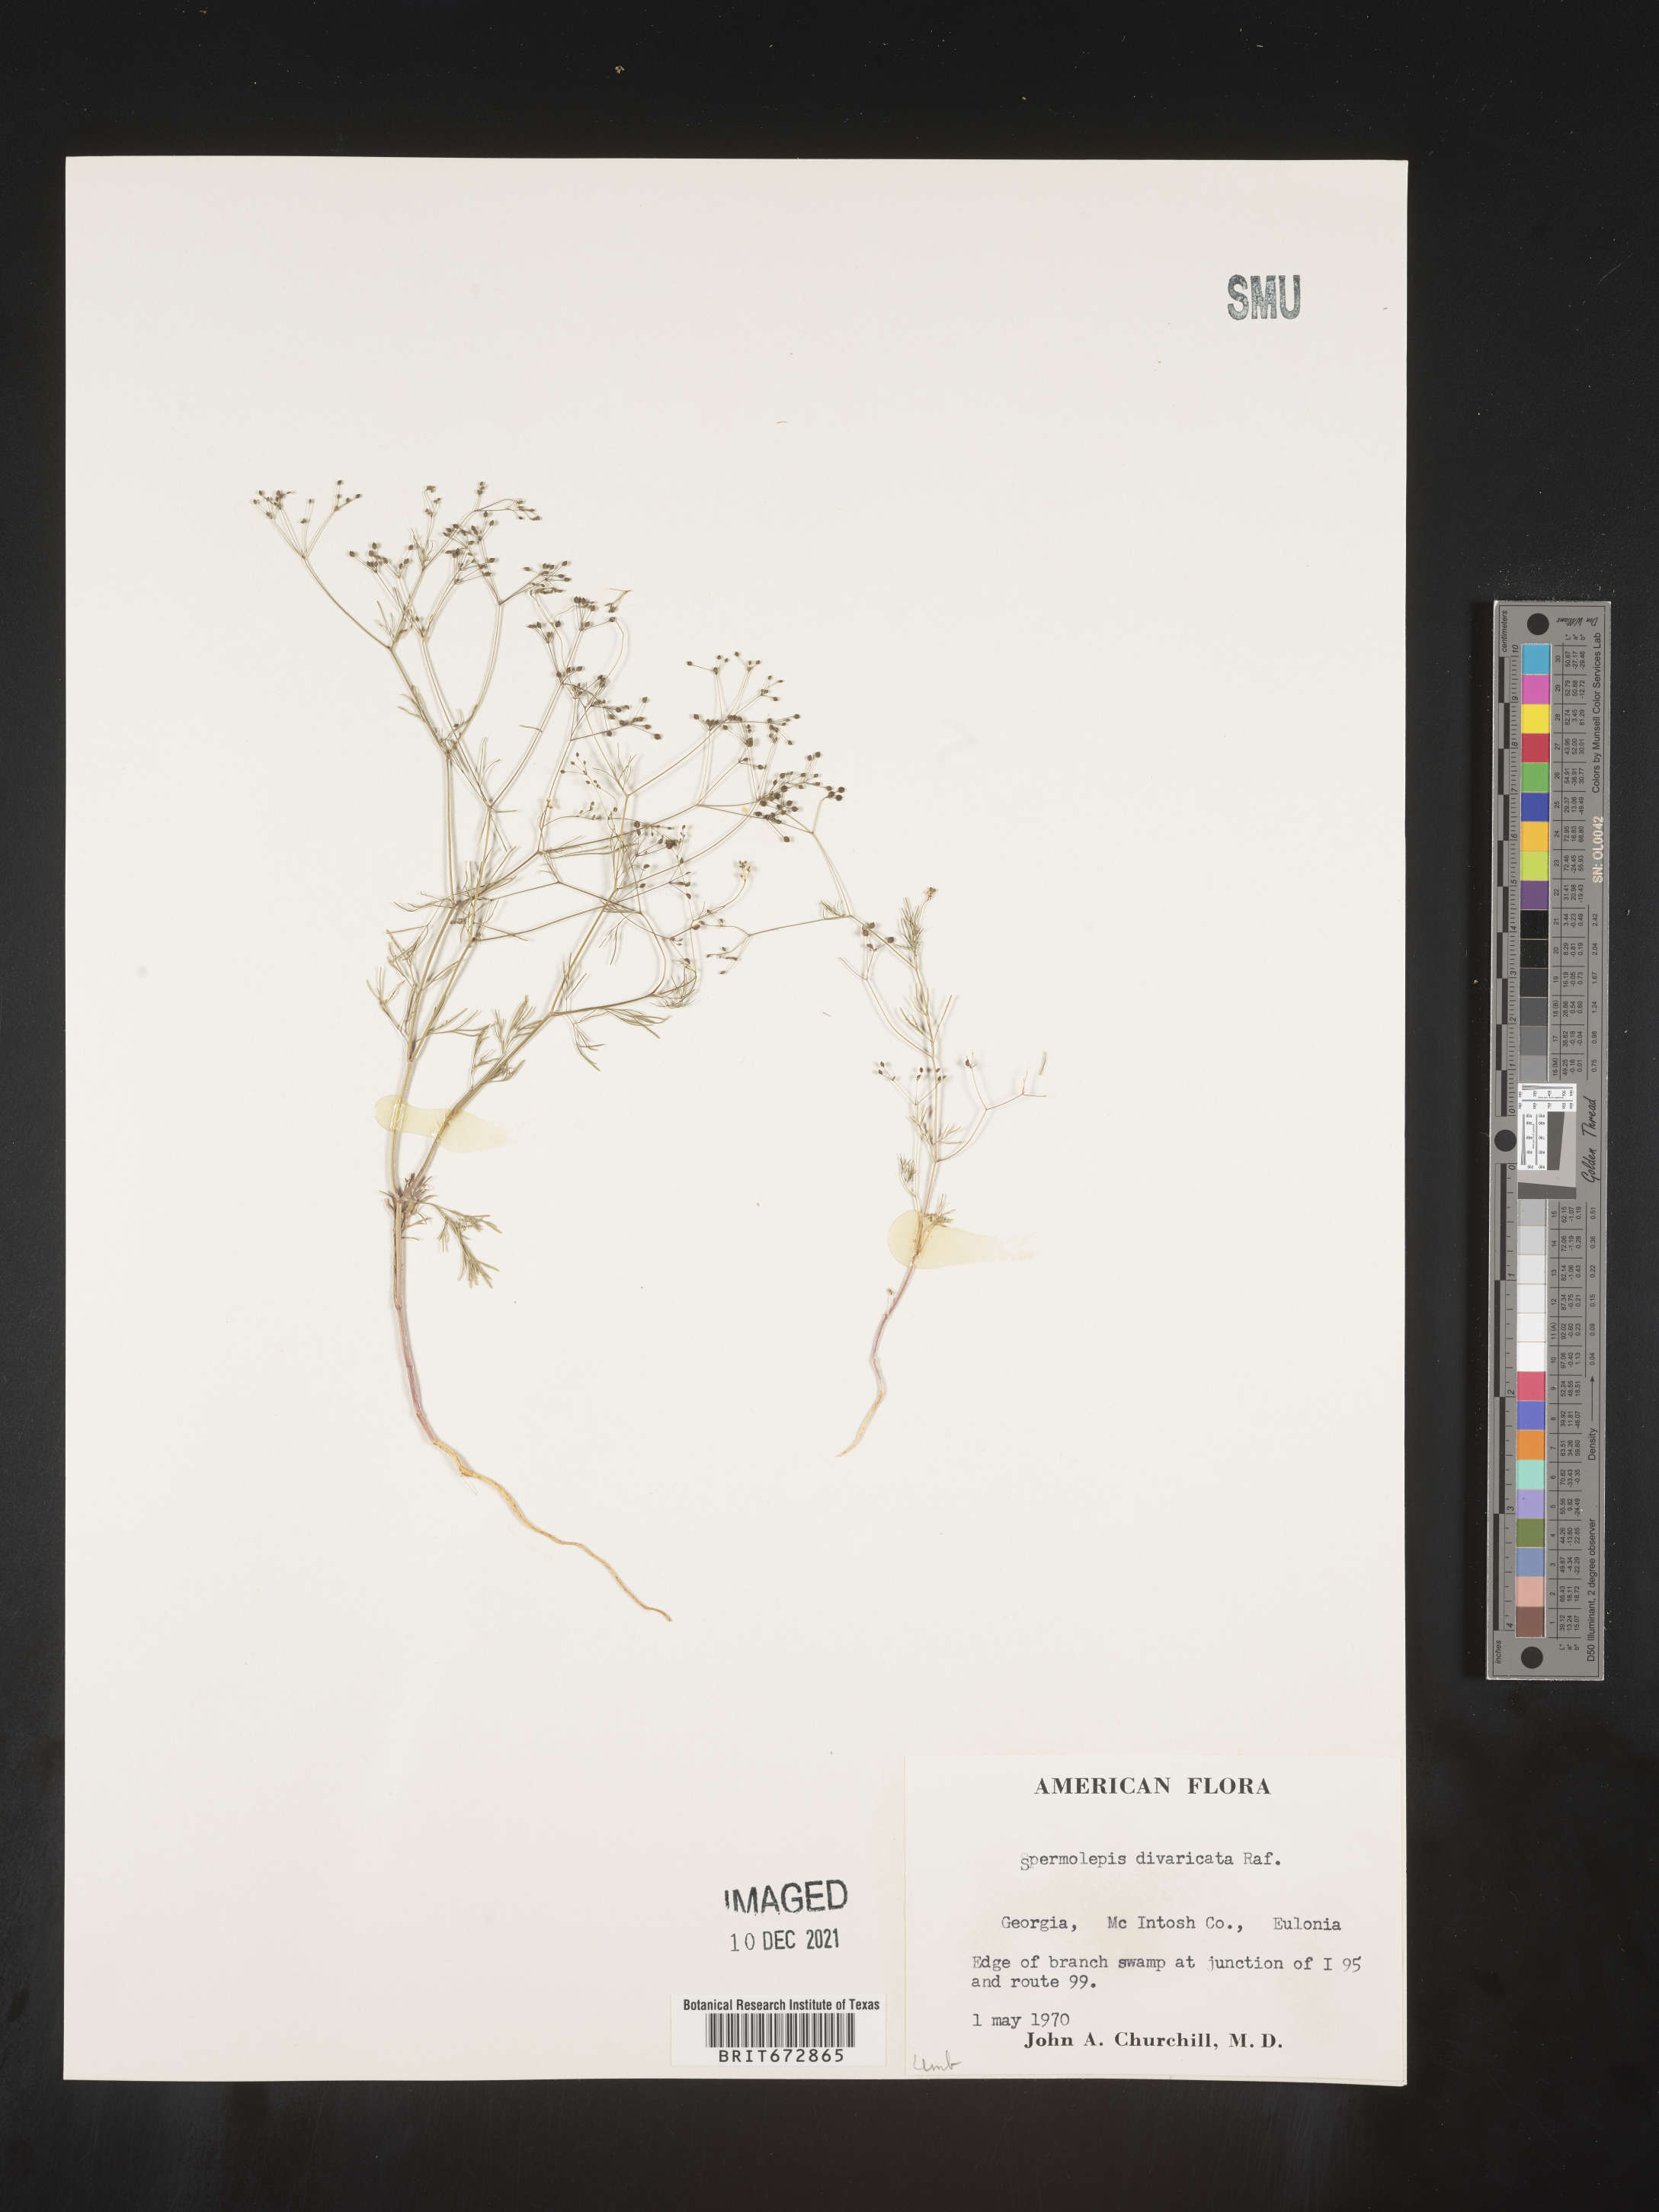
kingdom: Plantae
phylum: Tracheophyta
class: Magnoliopsida
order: Apiales
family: Apiaceae
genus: Spermolepis
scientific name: Spermolepis divaricata
